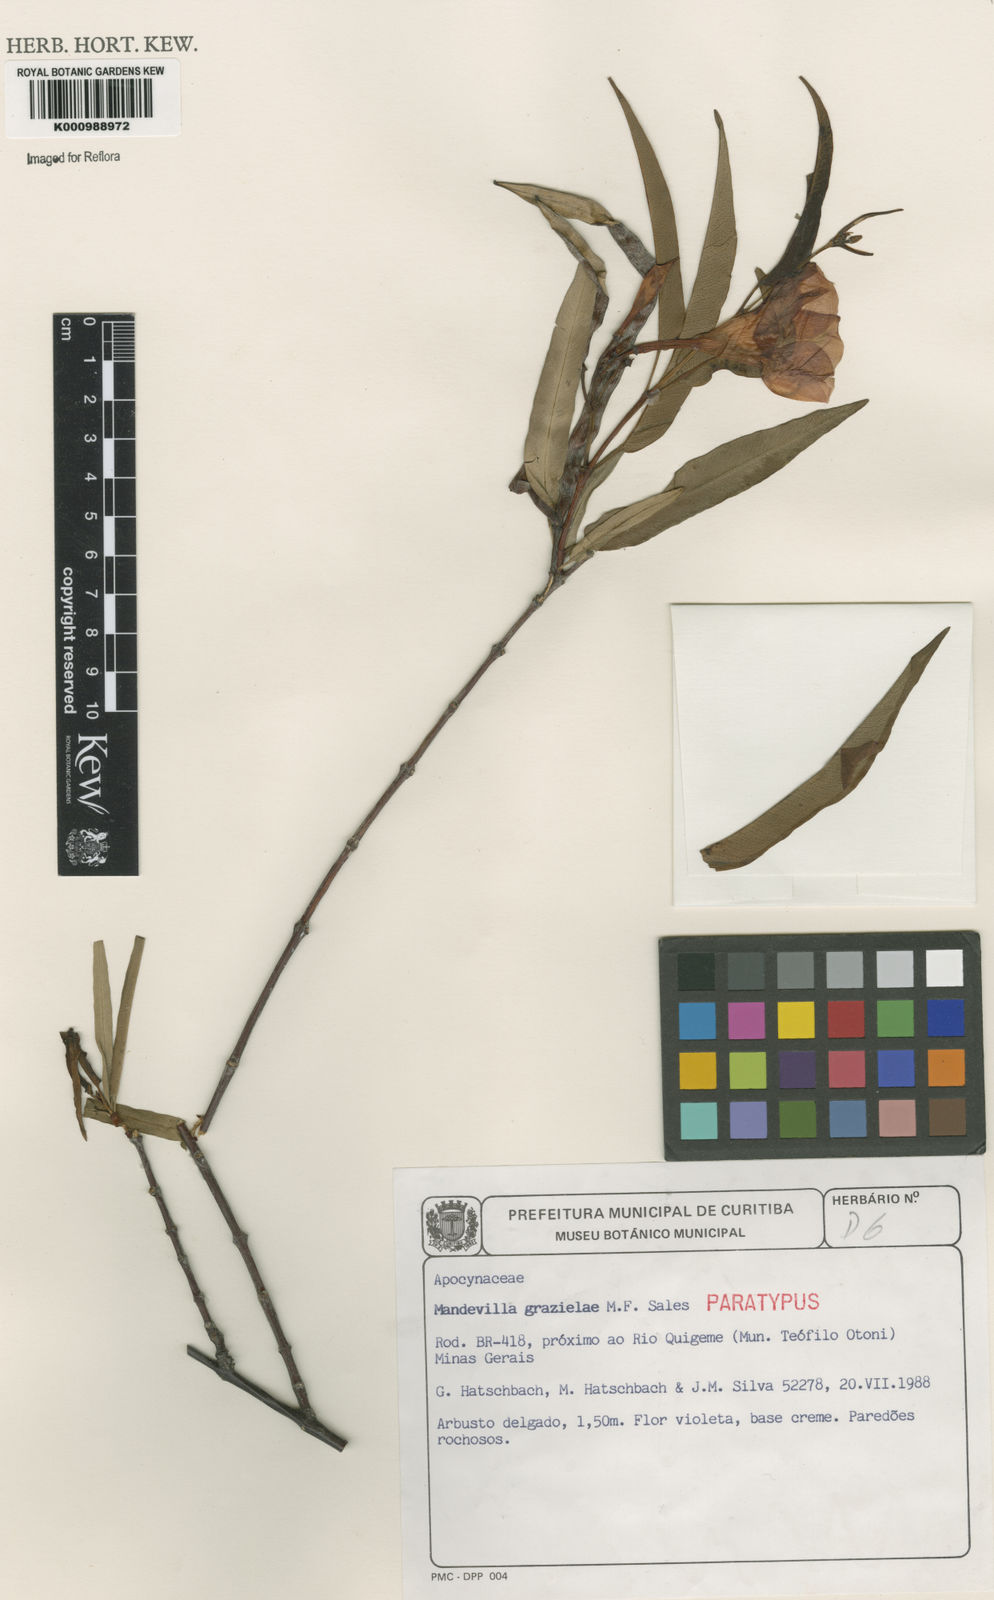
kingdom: Plantae
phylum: Tracheophyta
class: Magnoliopsida
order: Gentianales
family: Apocynaceae
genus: Mandevilla
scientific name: Mandevilla
